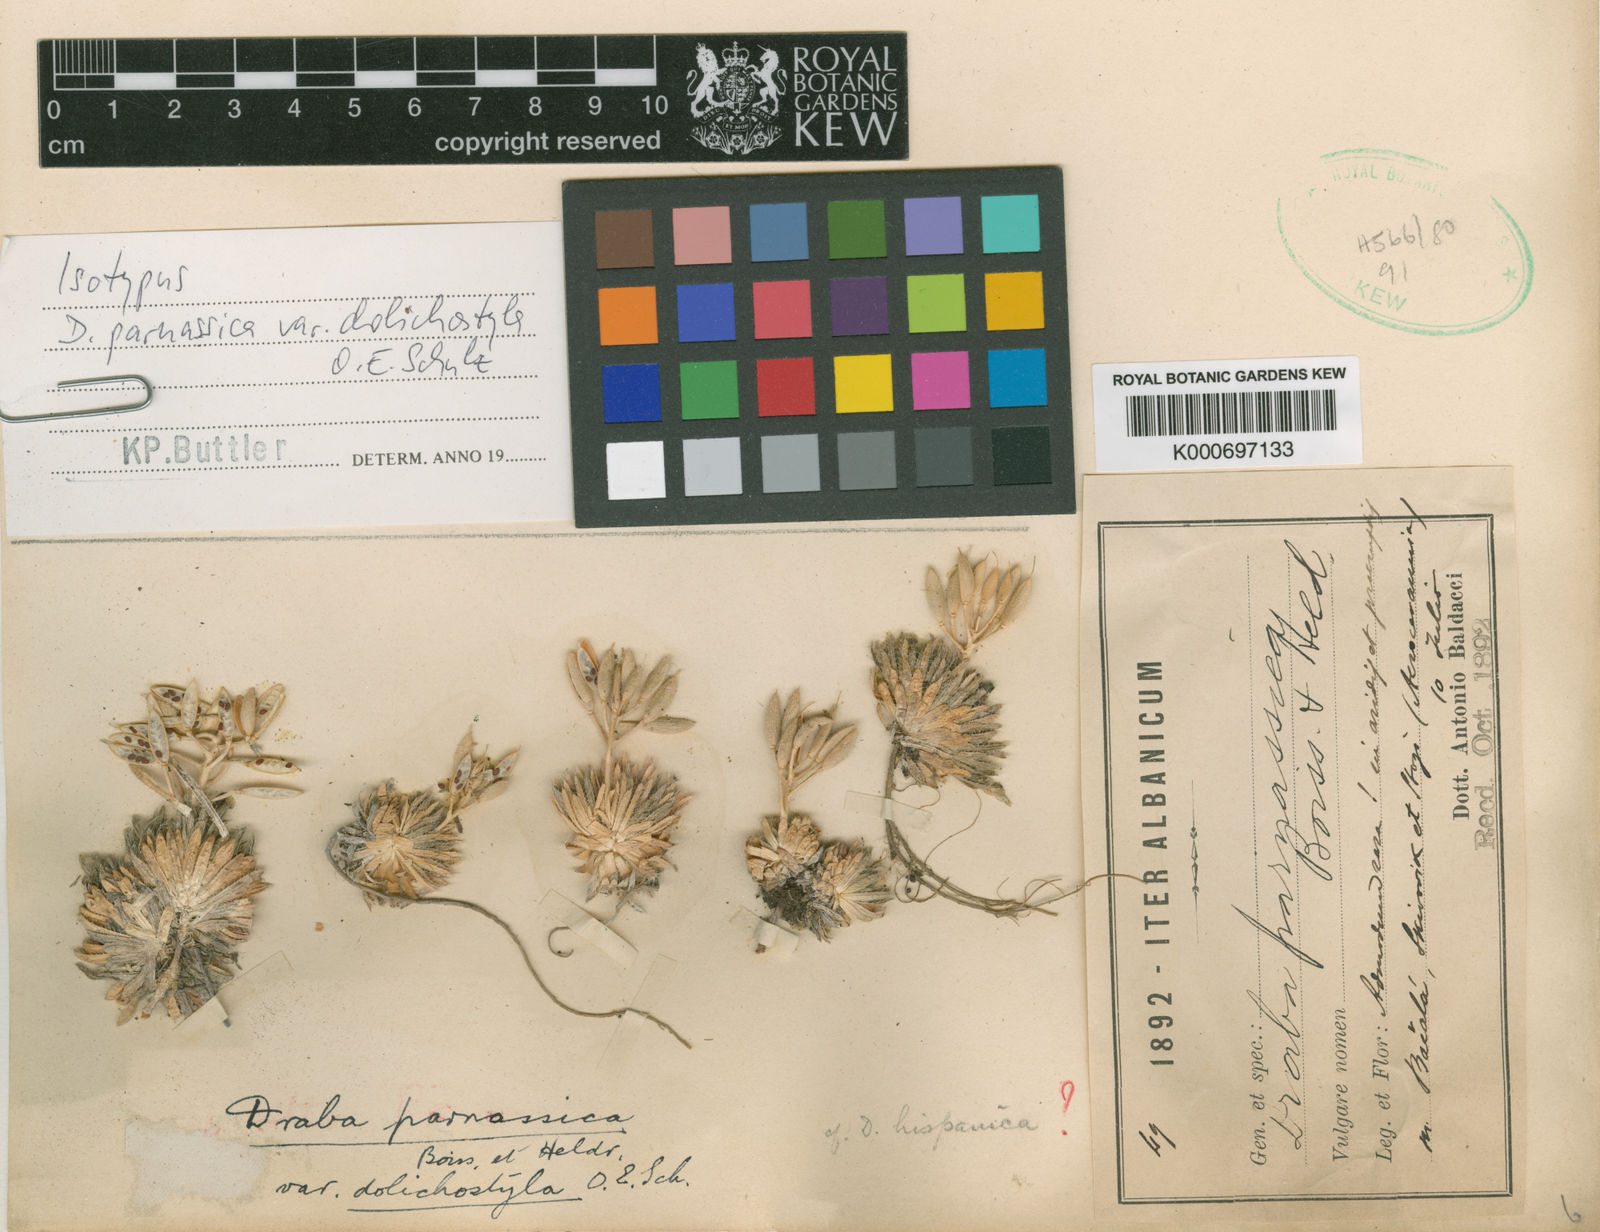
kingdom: Plantae
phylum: Tracheophyta
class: Magnoliopsida
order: Brassicales
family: Brassicaceae
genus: Draba
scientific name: Draba parnassica
